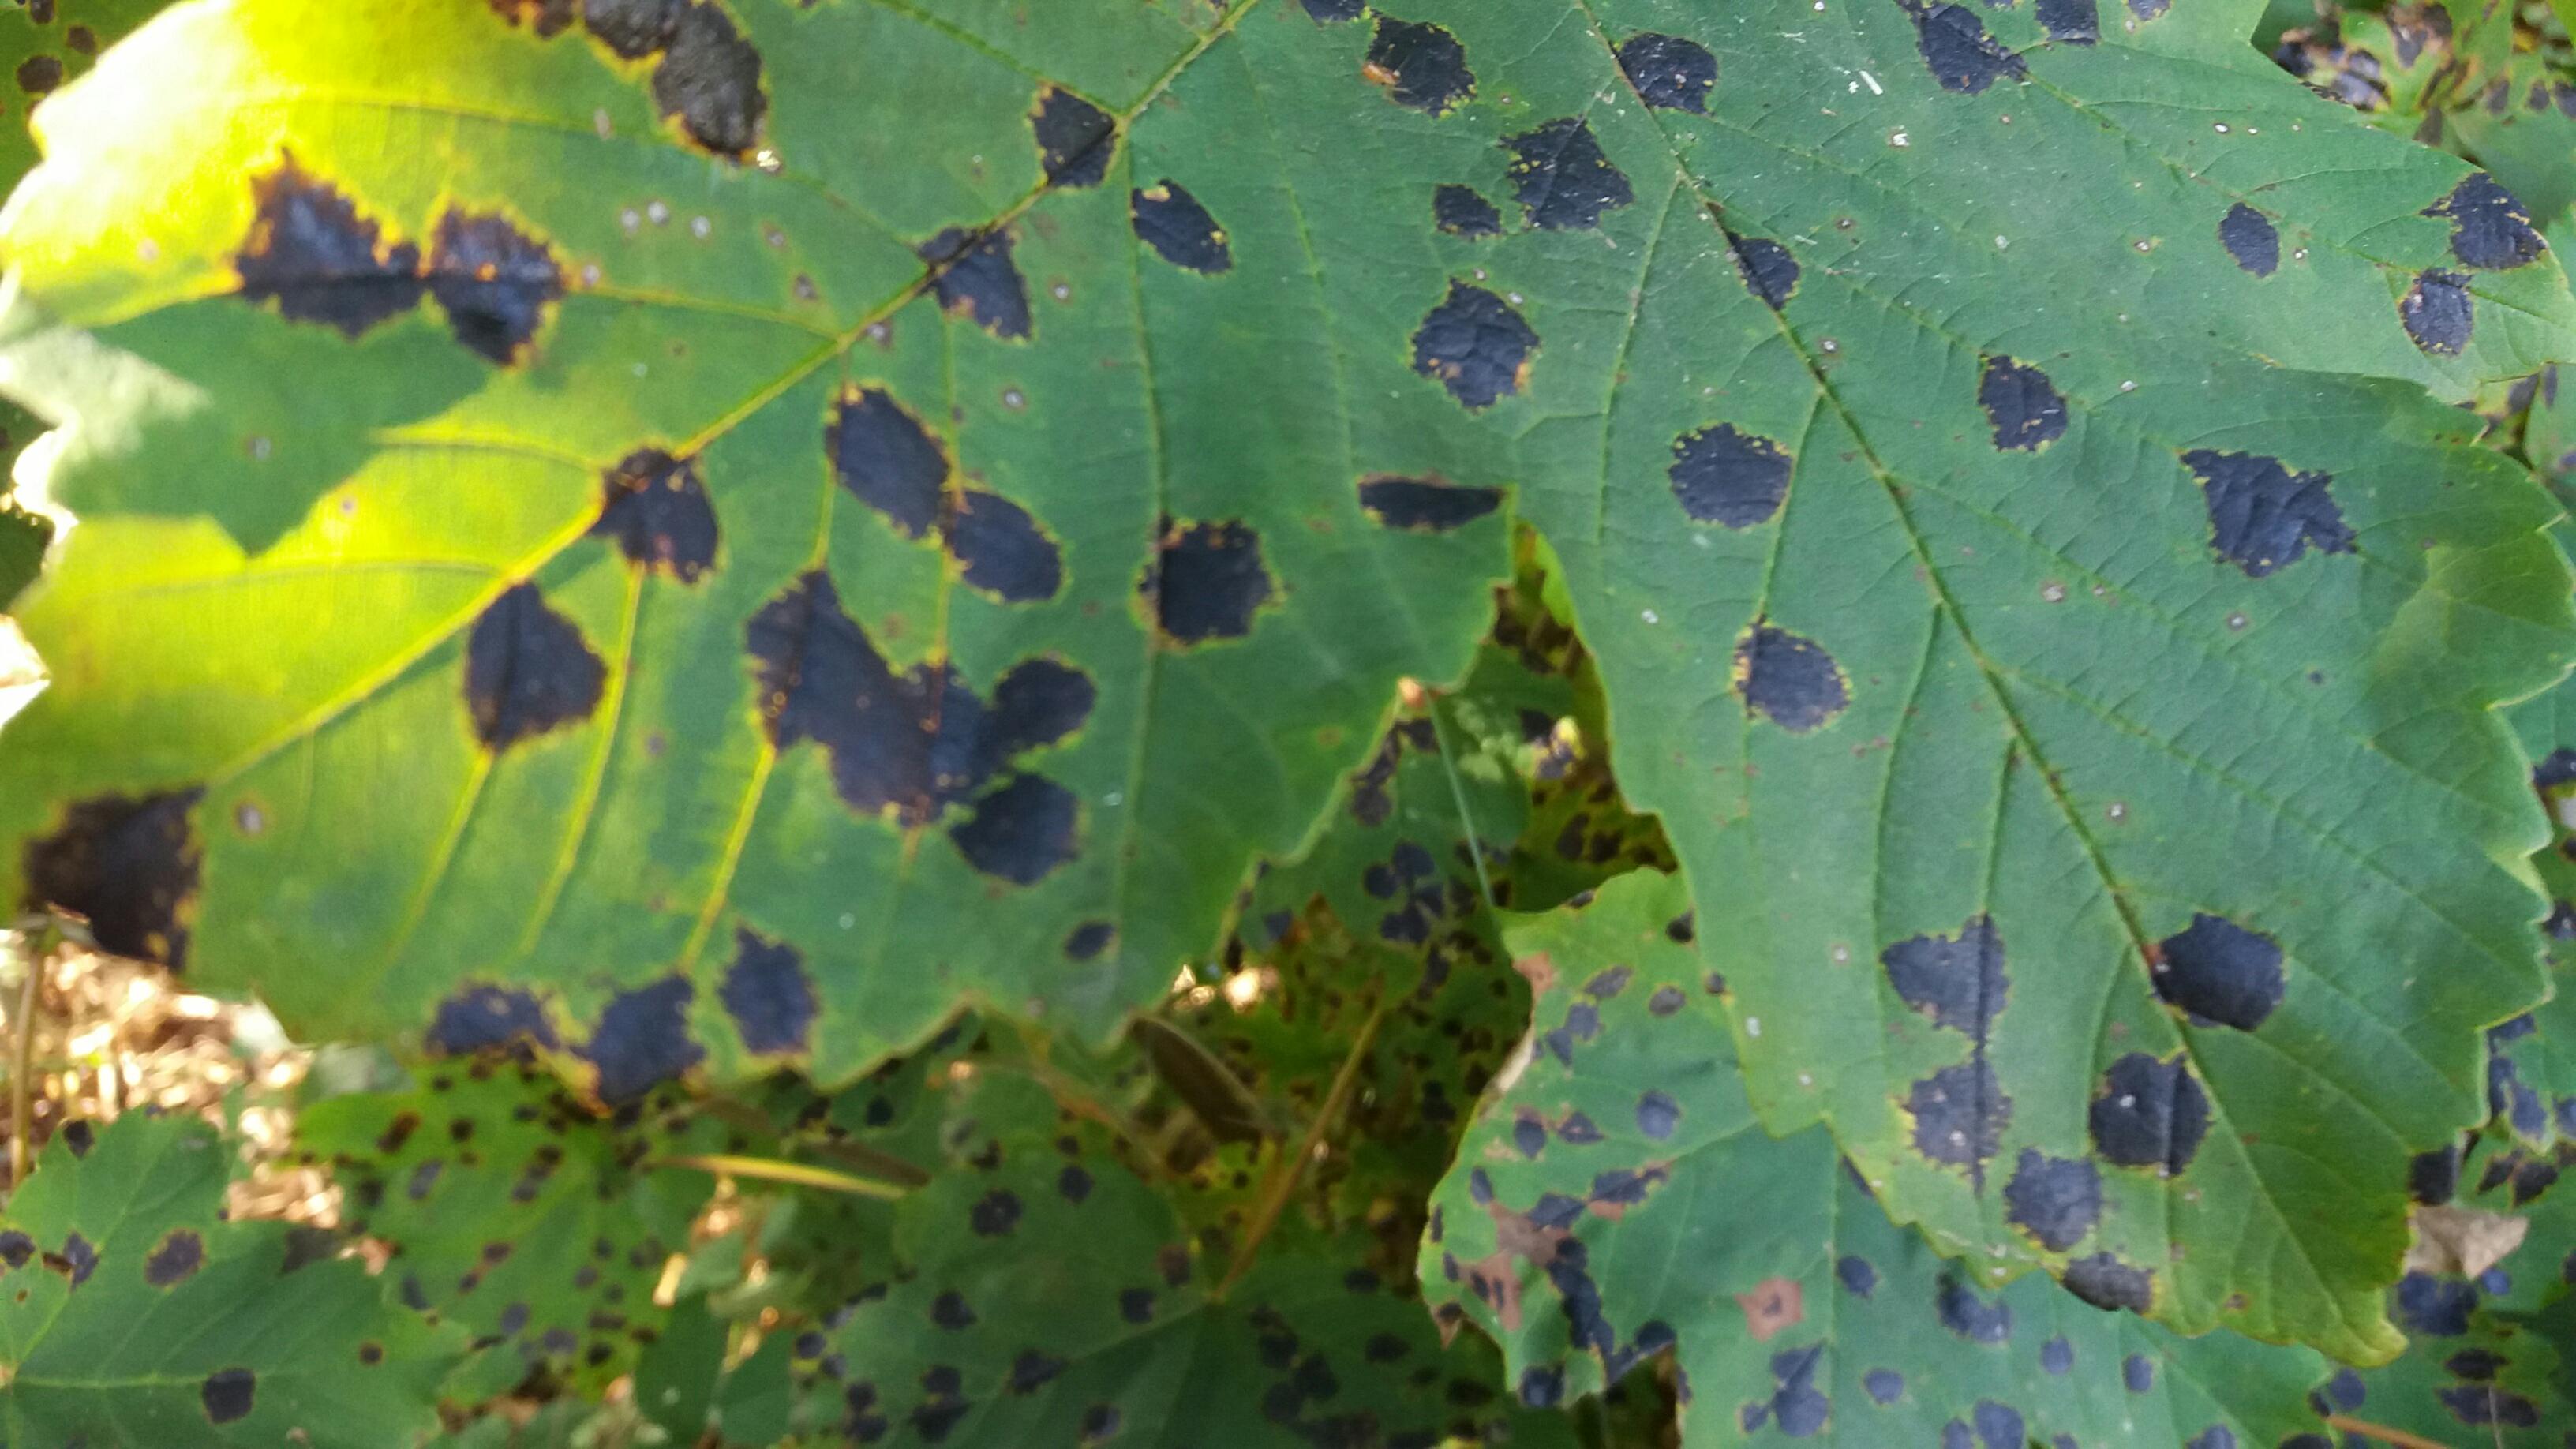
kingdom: Fungi
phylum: Ascomycota
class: Leotiomycetes
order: Rhytismatales
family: Rhytismataceae
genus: Rhytisma
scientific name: Rhytisma acerinum
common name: ahorn-rynkeplet
